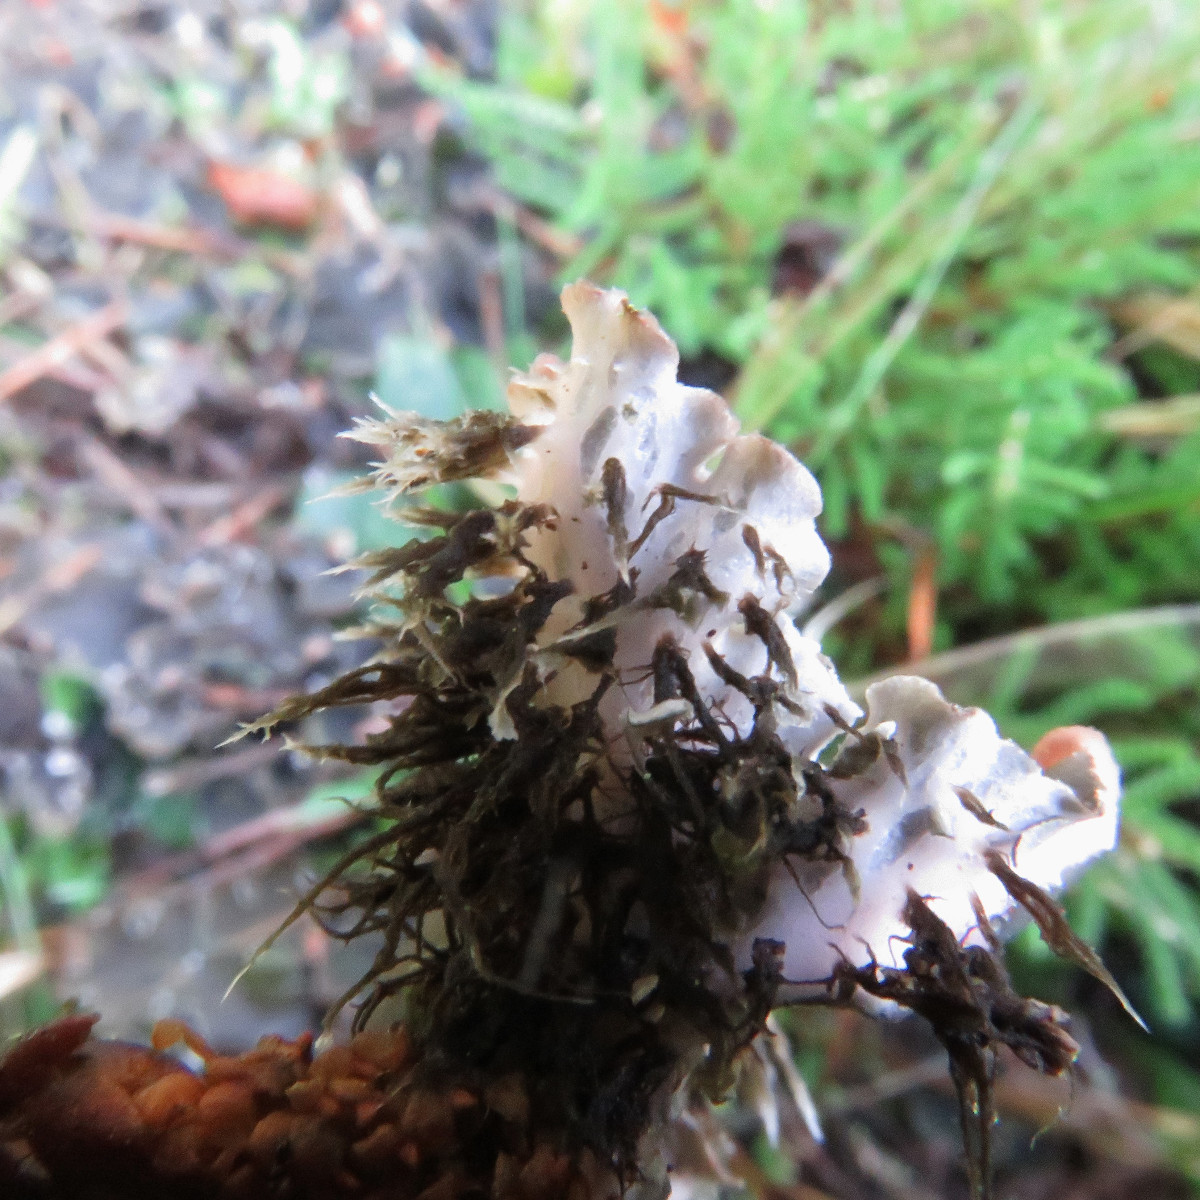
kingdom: Fungi
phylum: Ascomycota
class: Lecanoromycetes
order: Peltigerales
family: Peltigeraceae
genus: Peltigera
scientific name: Peltigera rufescens
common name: brun skjoldlav
